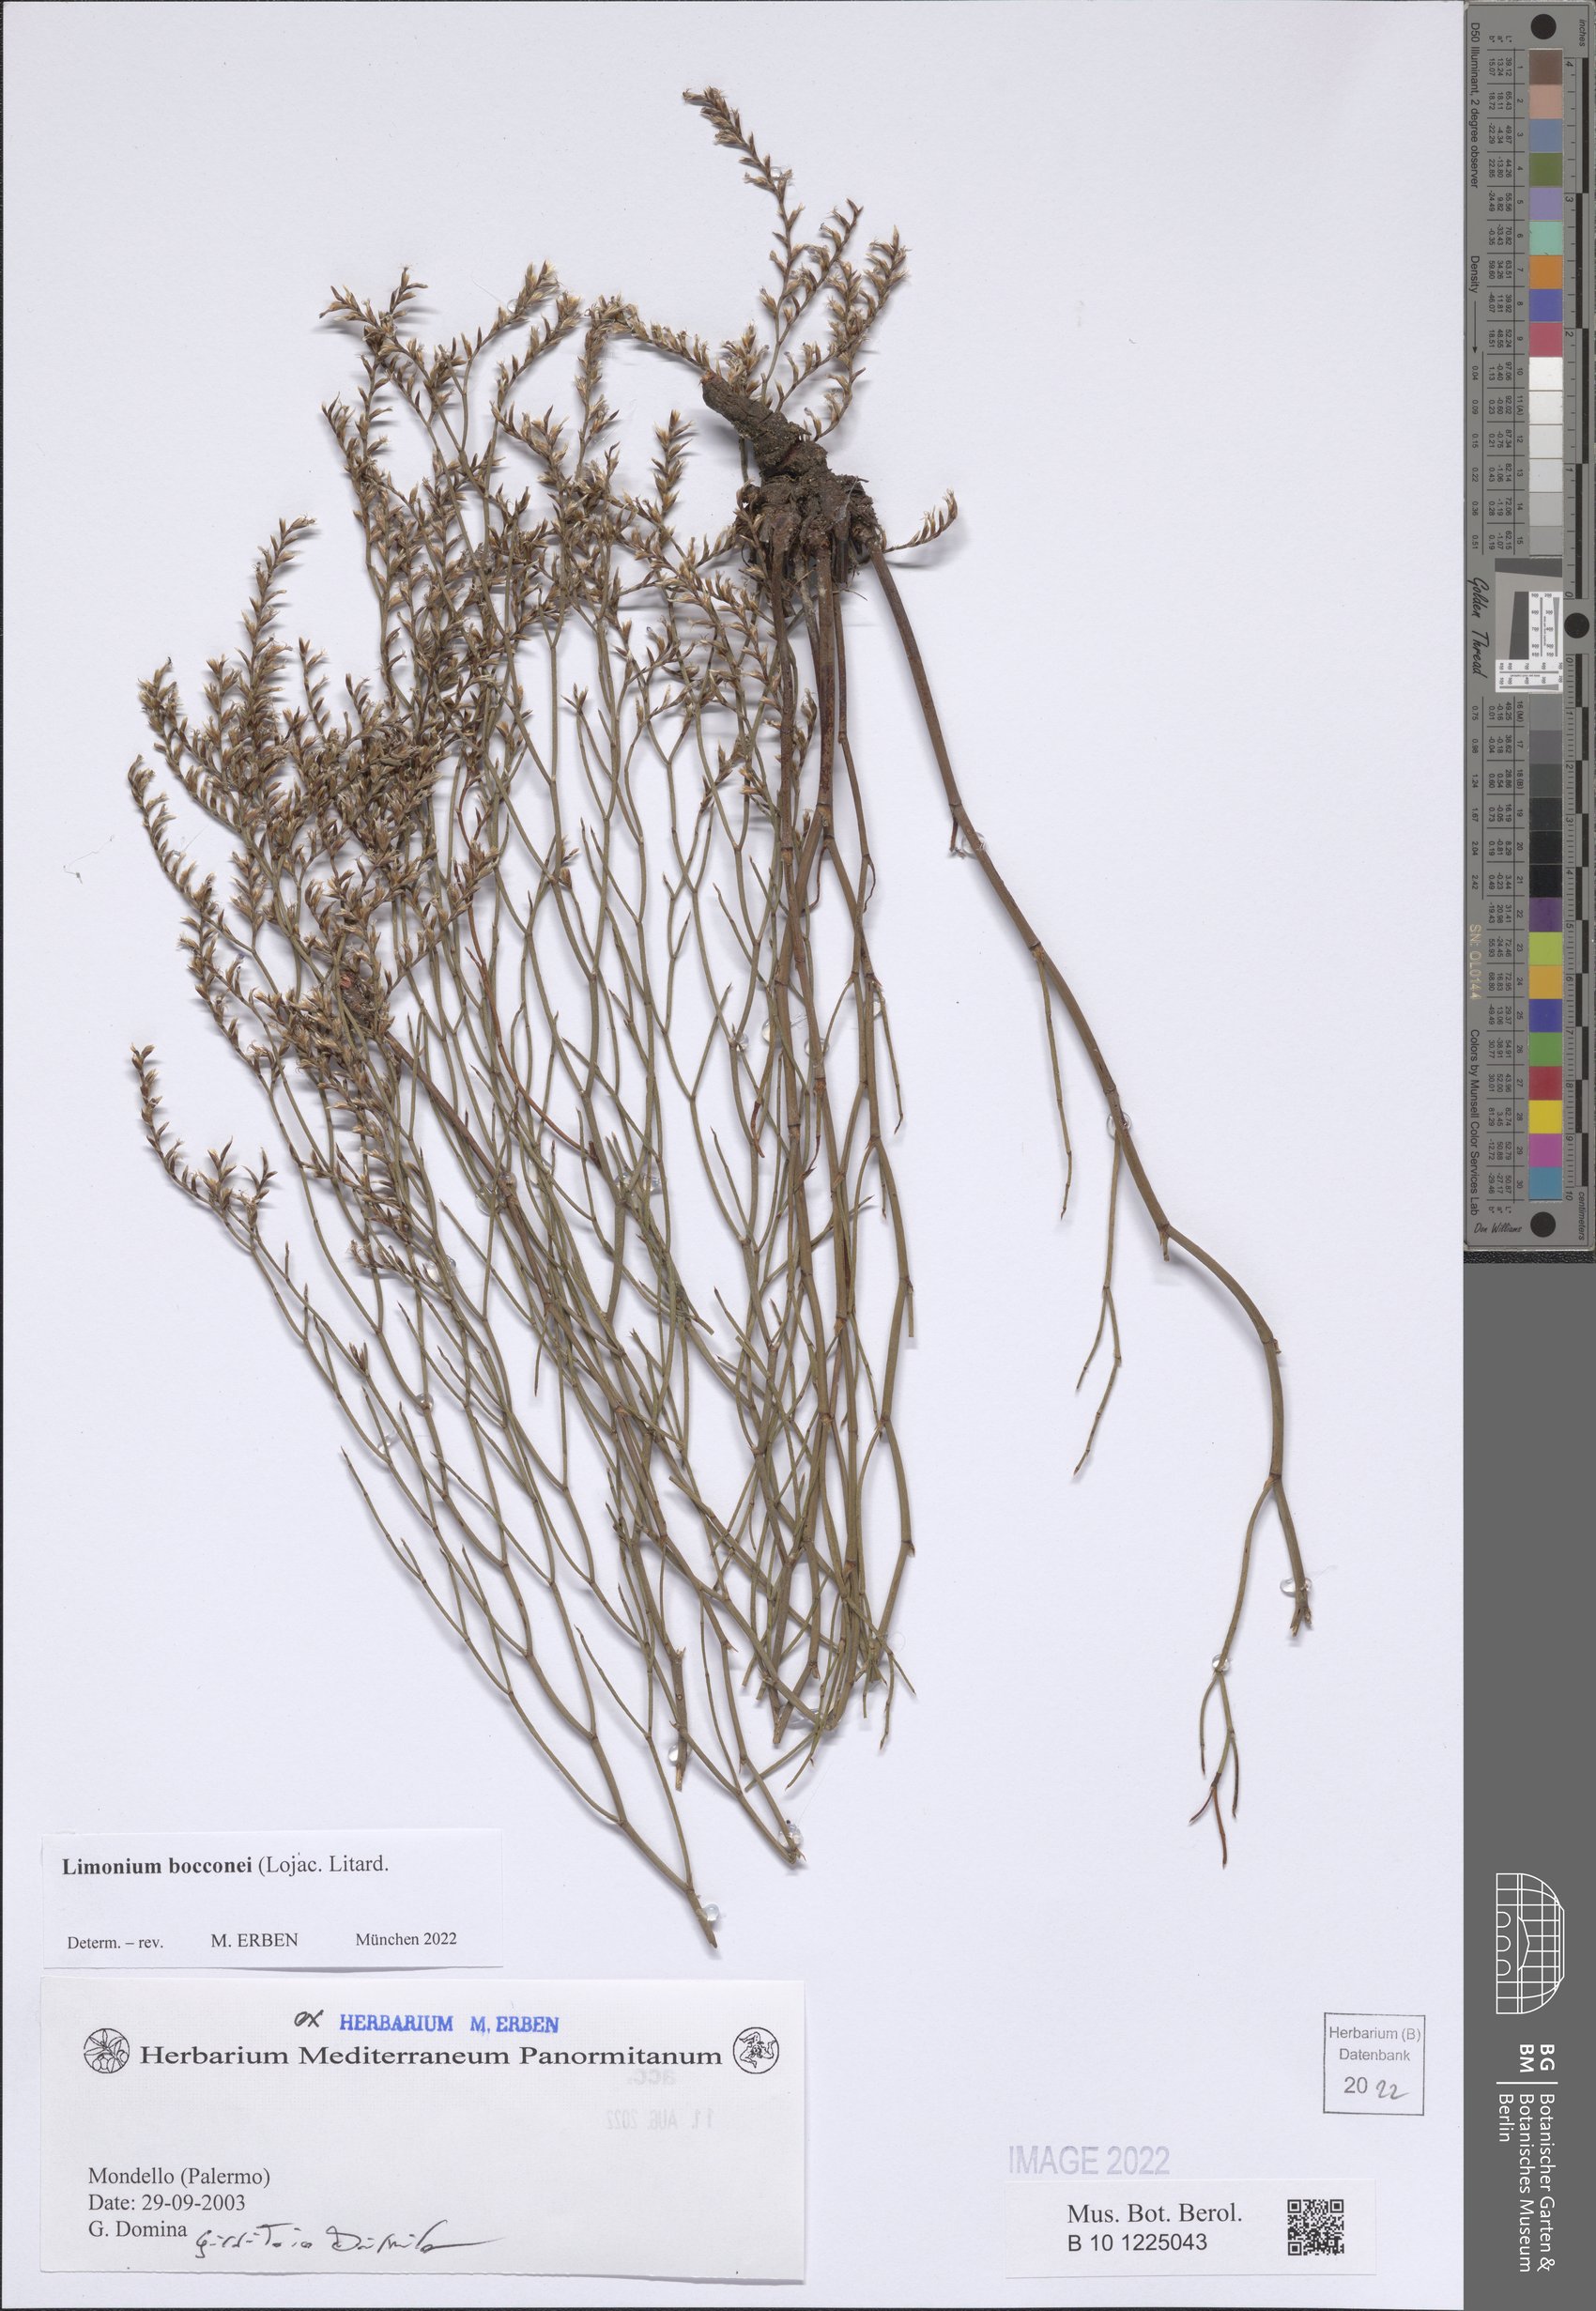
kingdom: Plantae
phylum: Tracheophyta
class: Magnoliopsida
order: Caryophyllales
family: Plumbaginaceae
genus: Limonium
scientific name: Limonium bocconei
